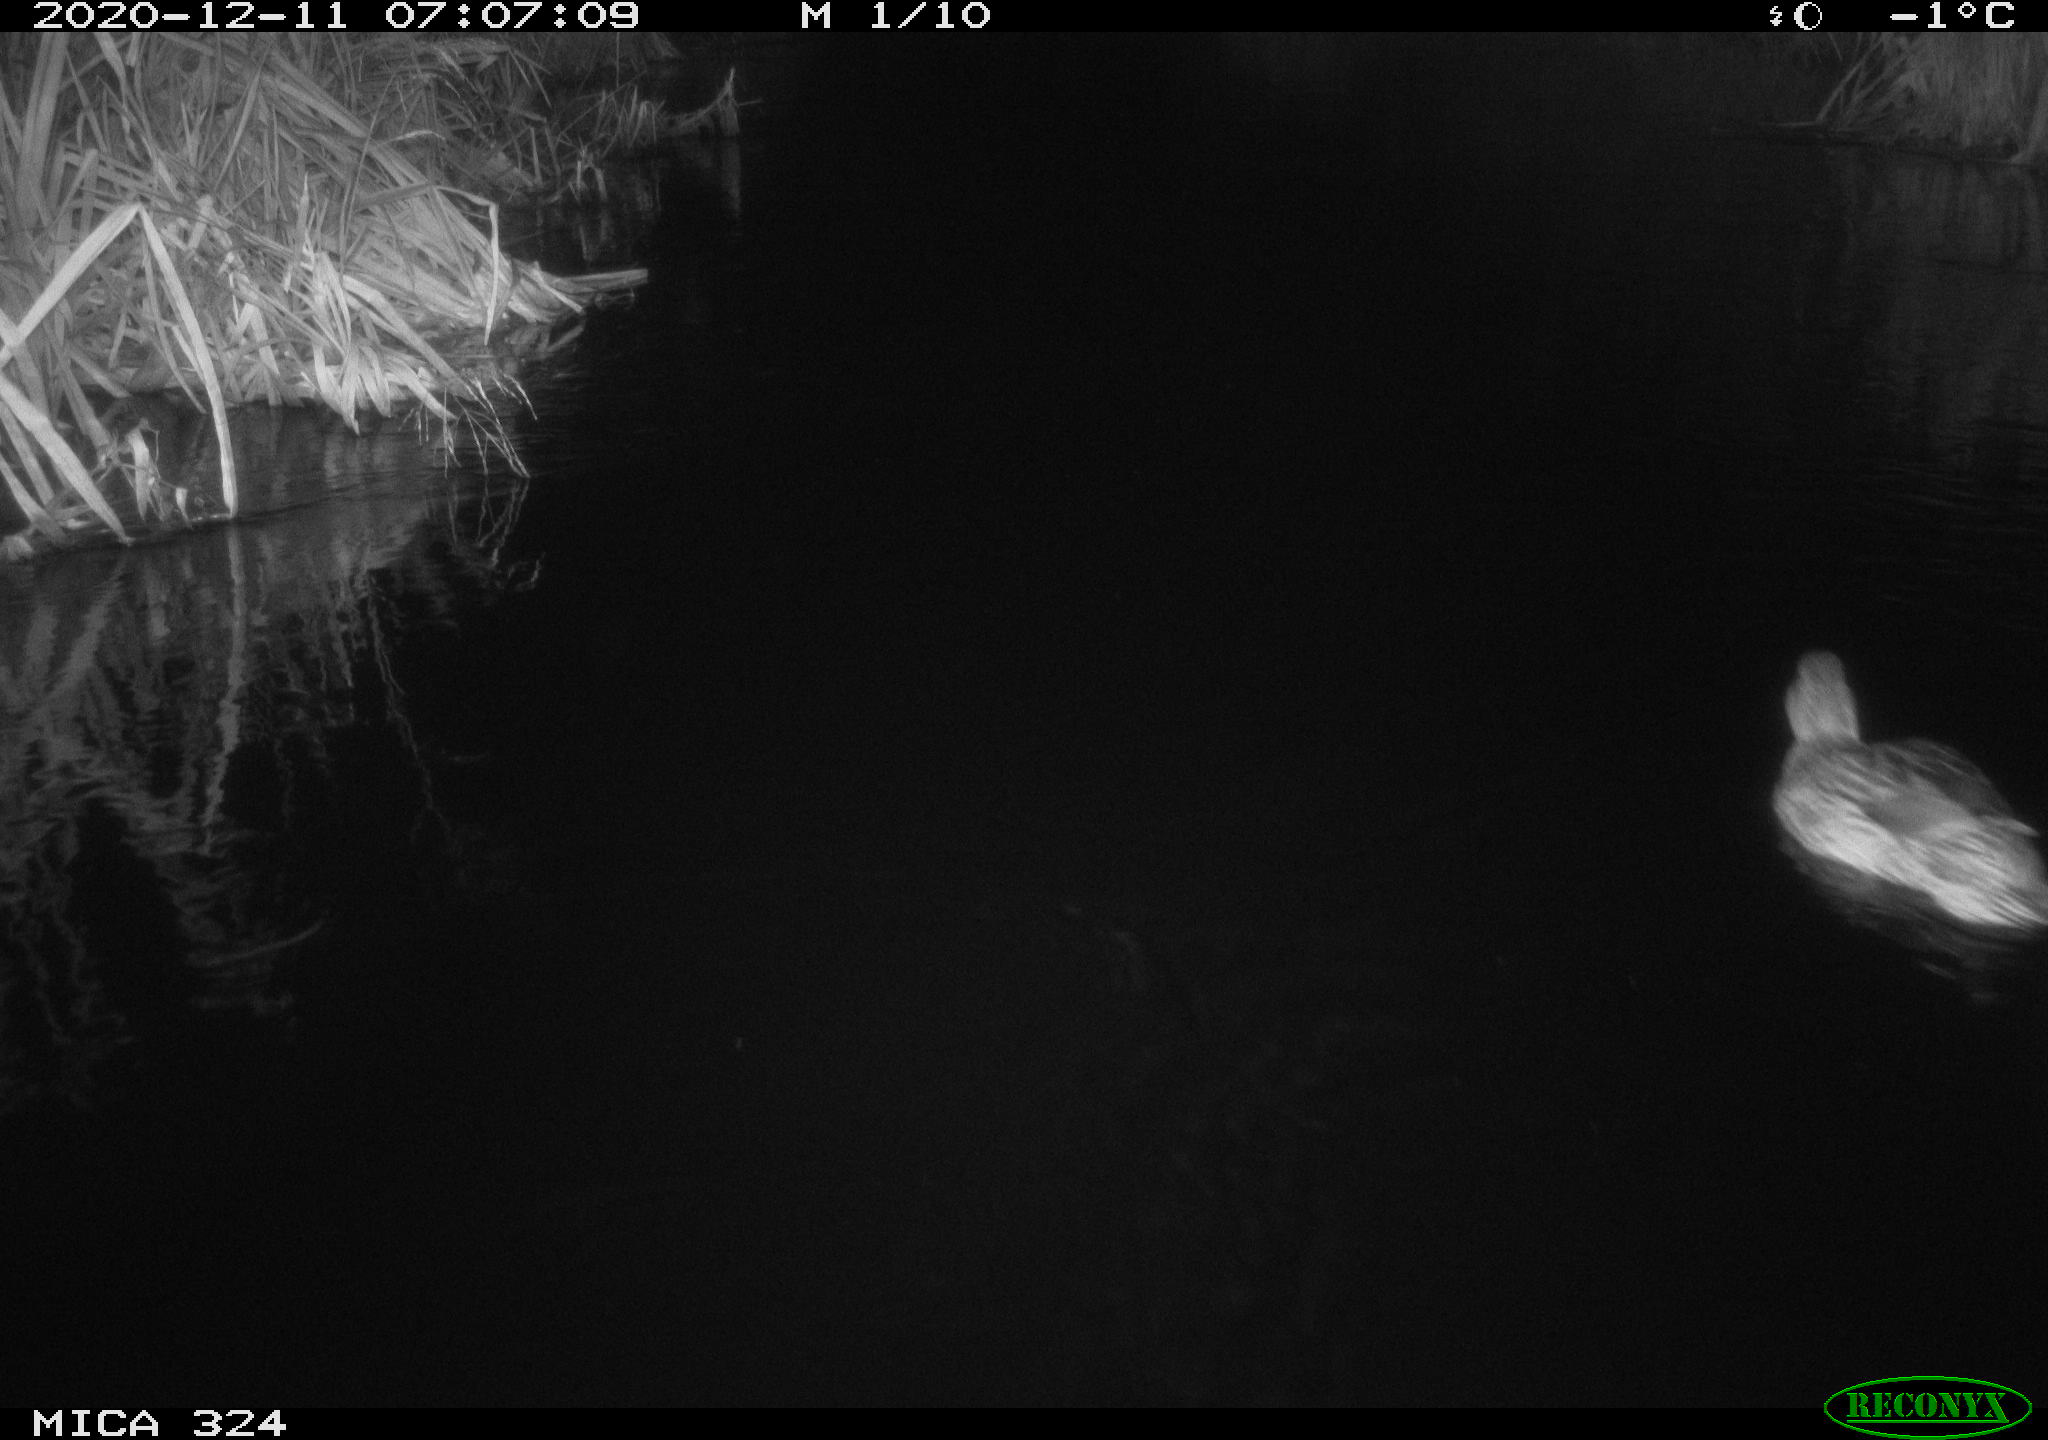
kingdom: Animalia
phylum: Chordata
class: Aves
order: Anseriformes
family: Anatidae
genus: Anas
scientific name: Anas platyrhynchos
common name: Mallard
